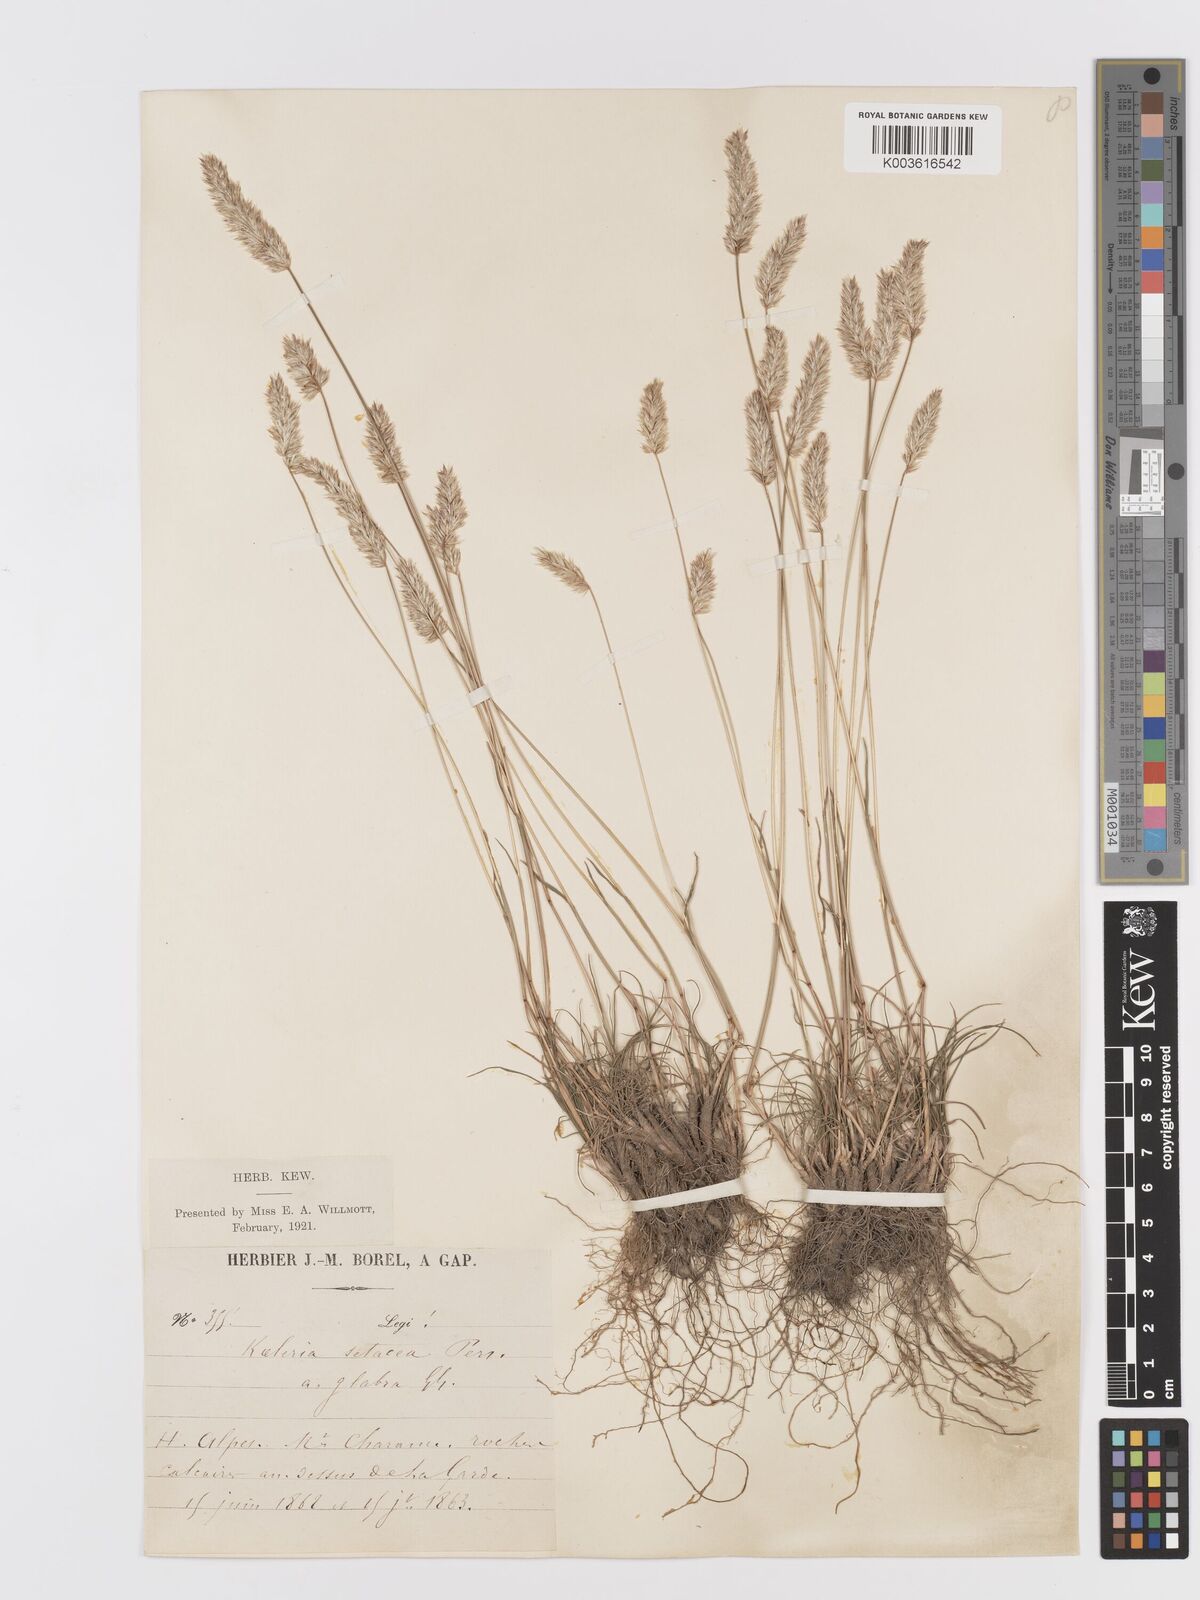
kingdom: Plantae
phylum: Tracheophyta
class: Liliopsida
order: Poales
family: Poaceae
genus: Koeleria
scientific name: Koeleria vallesiana
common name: Somerset hair-grass
